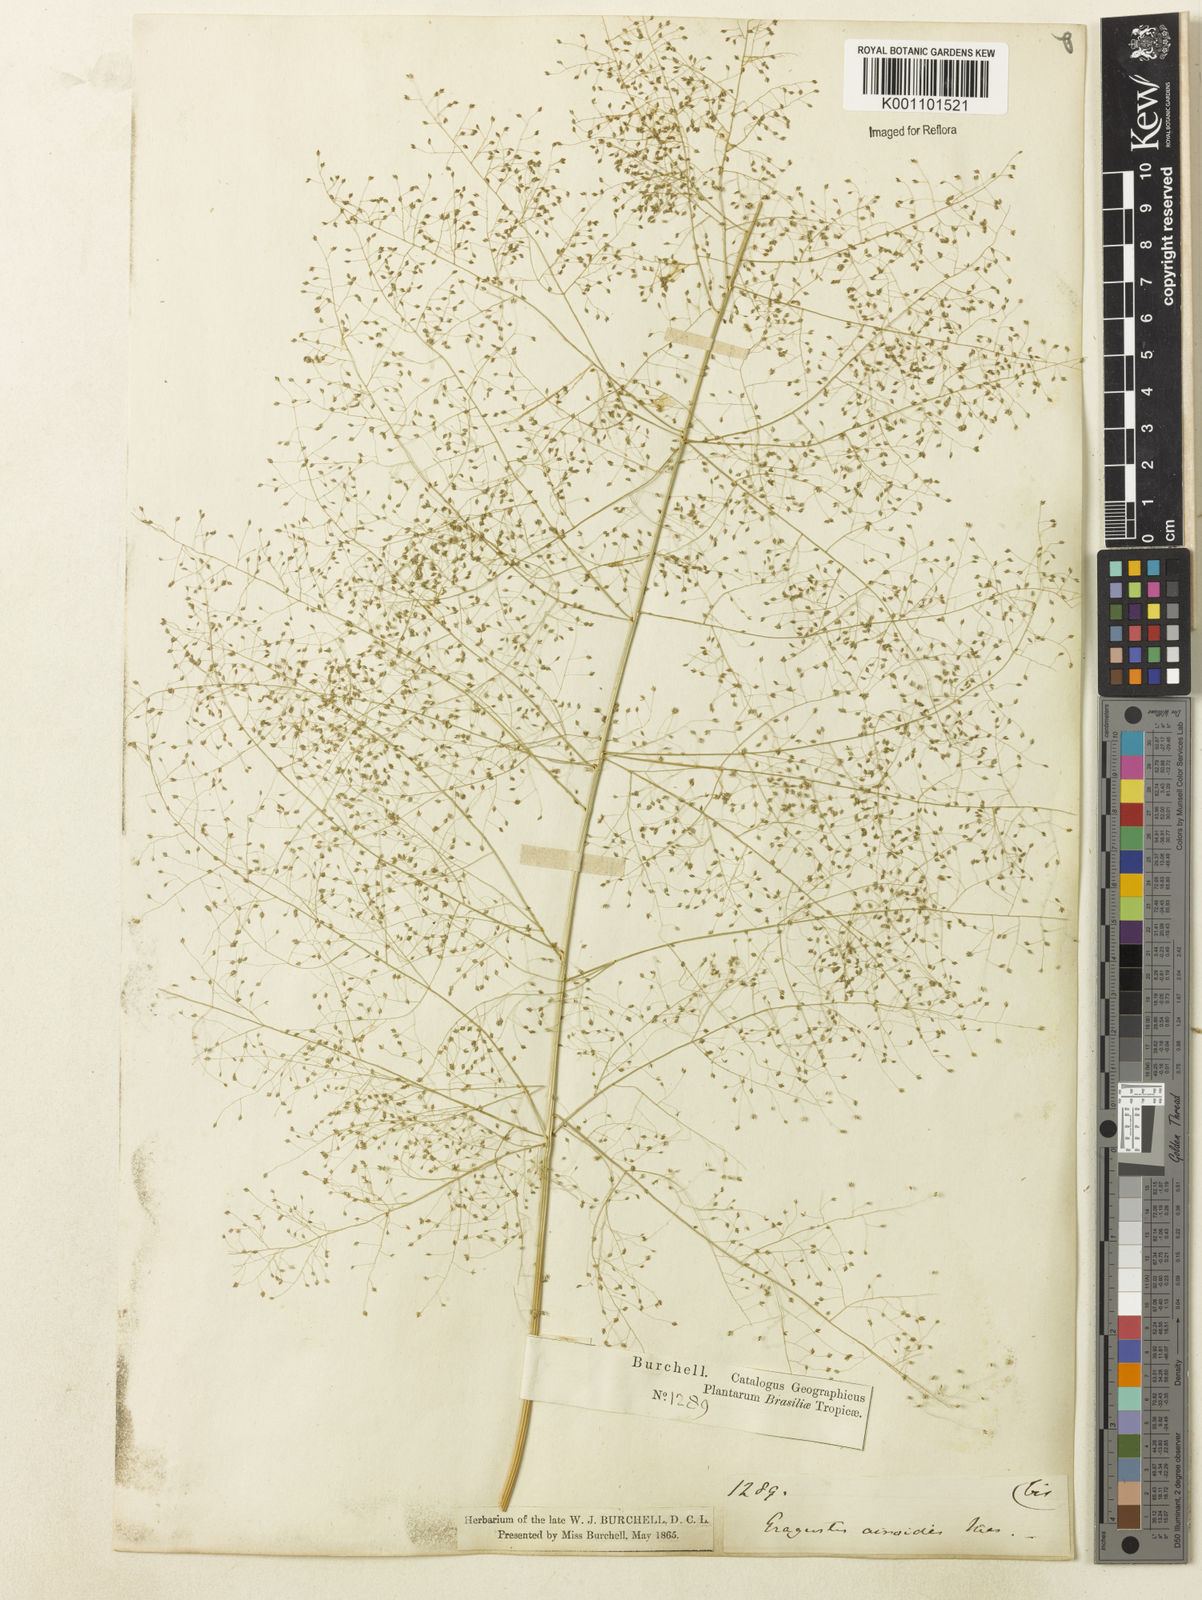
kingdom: Plantae
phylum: Tracheophyta
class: Liliopsida
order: Poales
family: Poaceae
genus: Eragrostis
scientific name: Eragrostis airoides
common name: Darnel lovegrass
